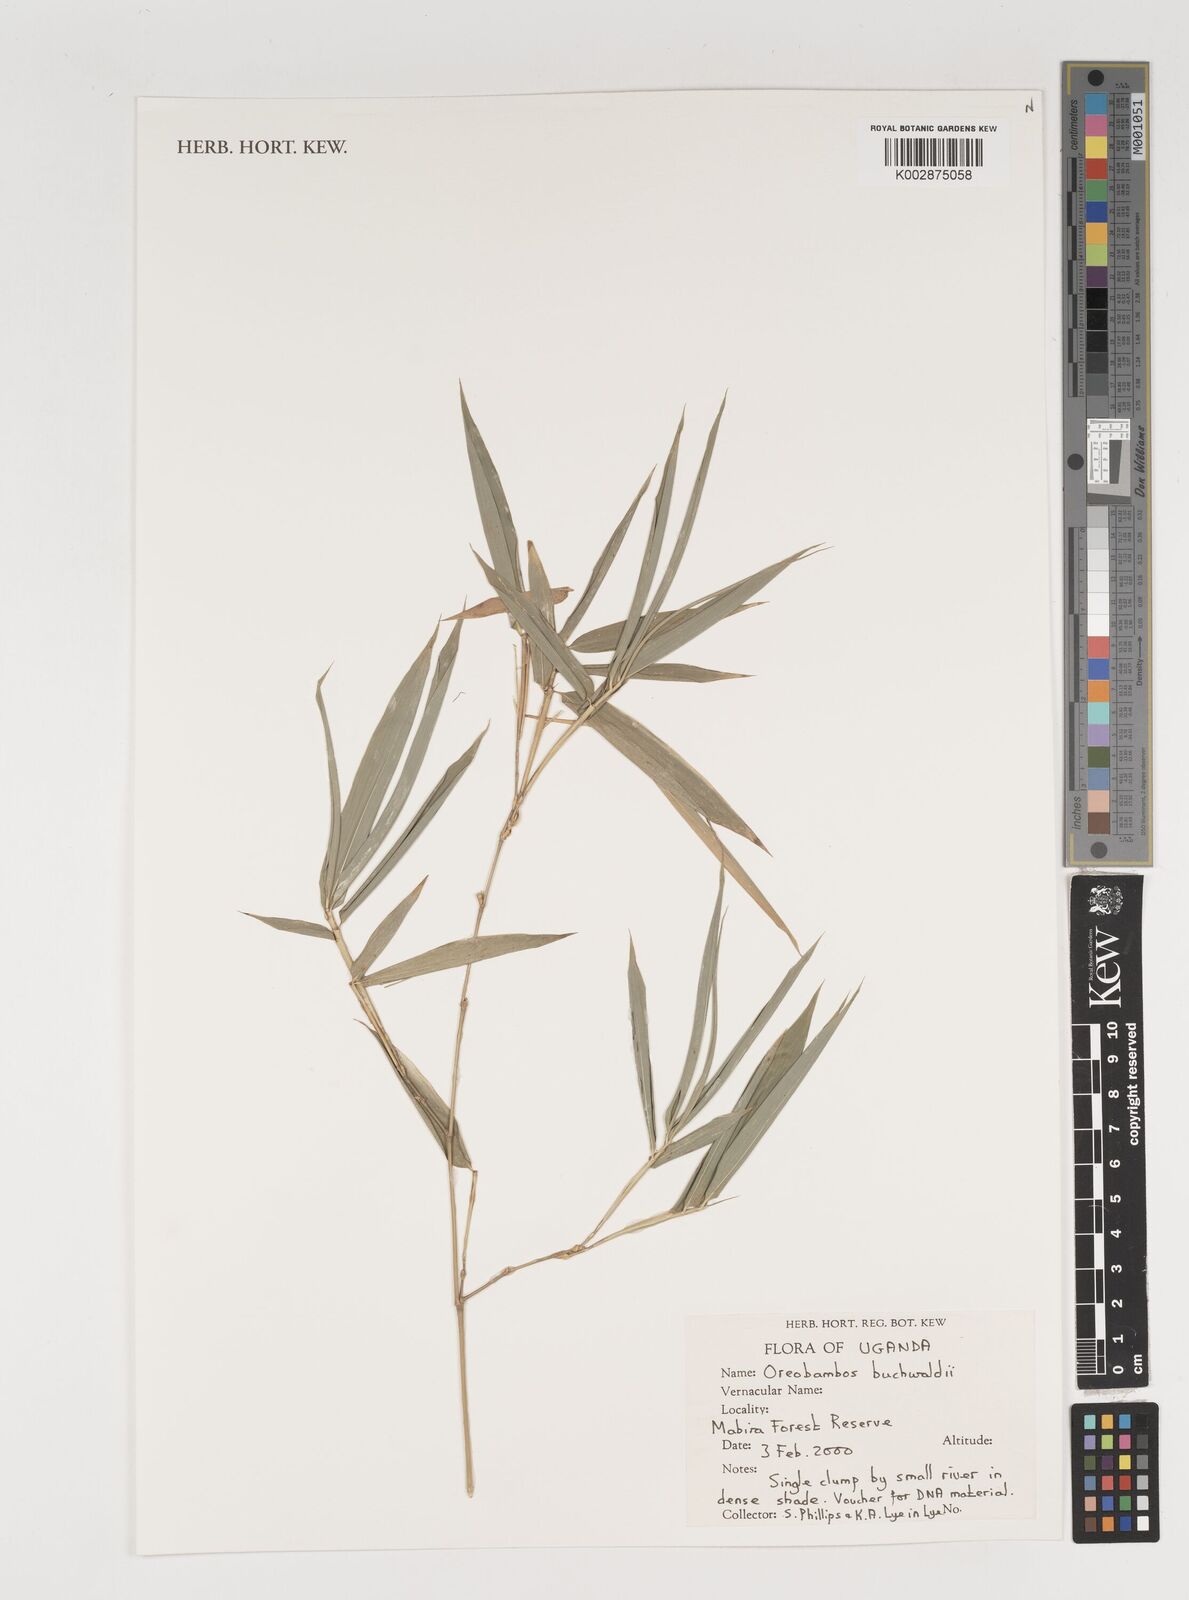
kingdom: Plantae
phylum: Tracheophyta
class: Liliopsida
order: Poales
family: Poaceae
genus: Oreobambos
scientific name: Oreobambos
